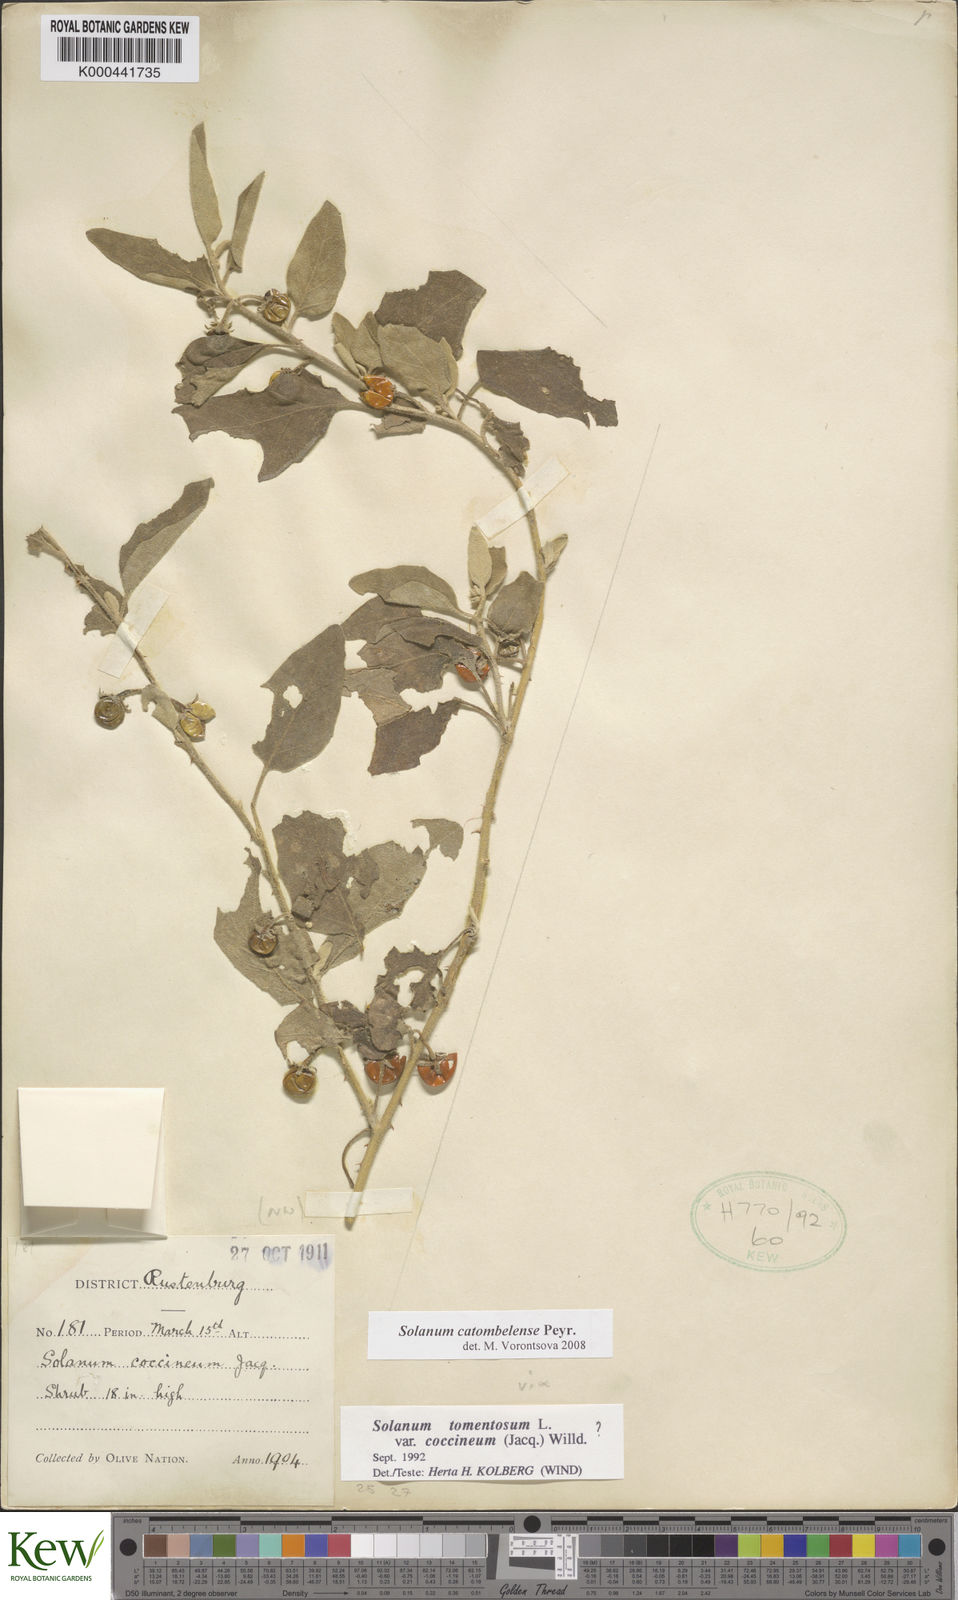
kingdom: Plantae
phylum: Tracheophyta
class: Magnoliopsida
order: Solanales
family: Solanaceae
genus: Solanum
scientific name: Solanum catombelense
